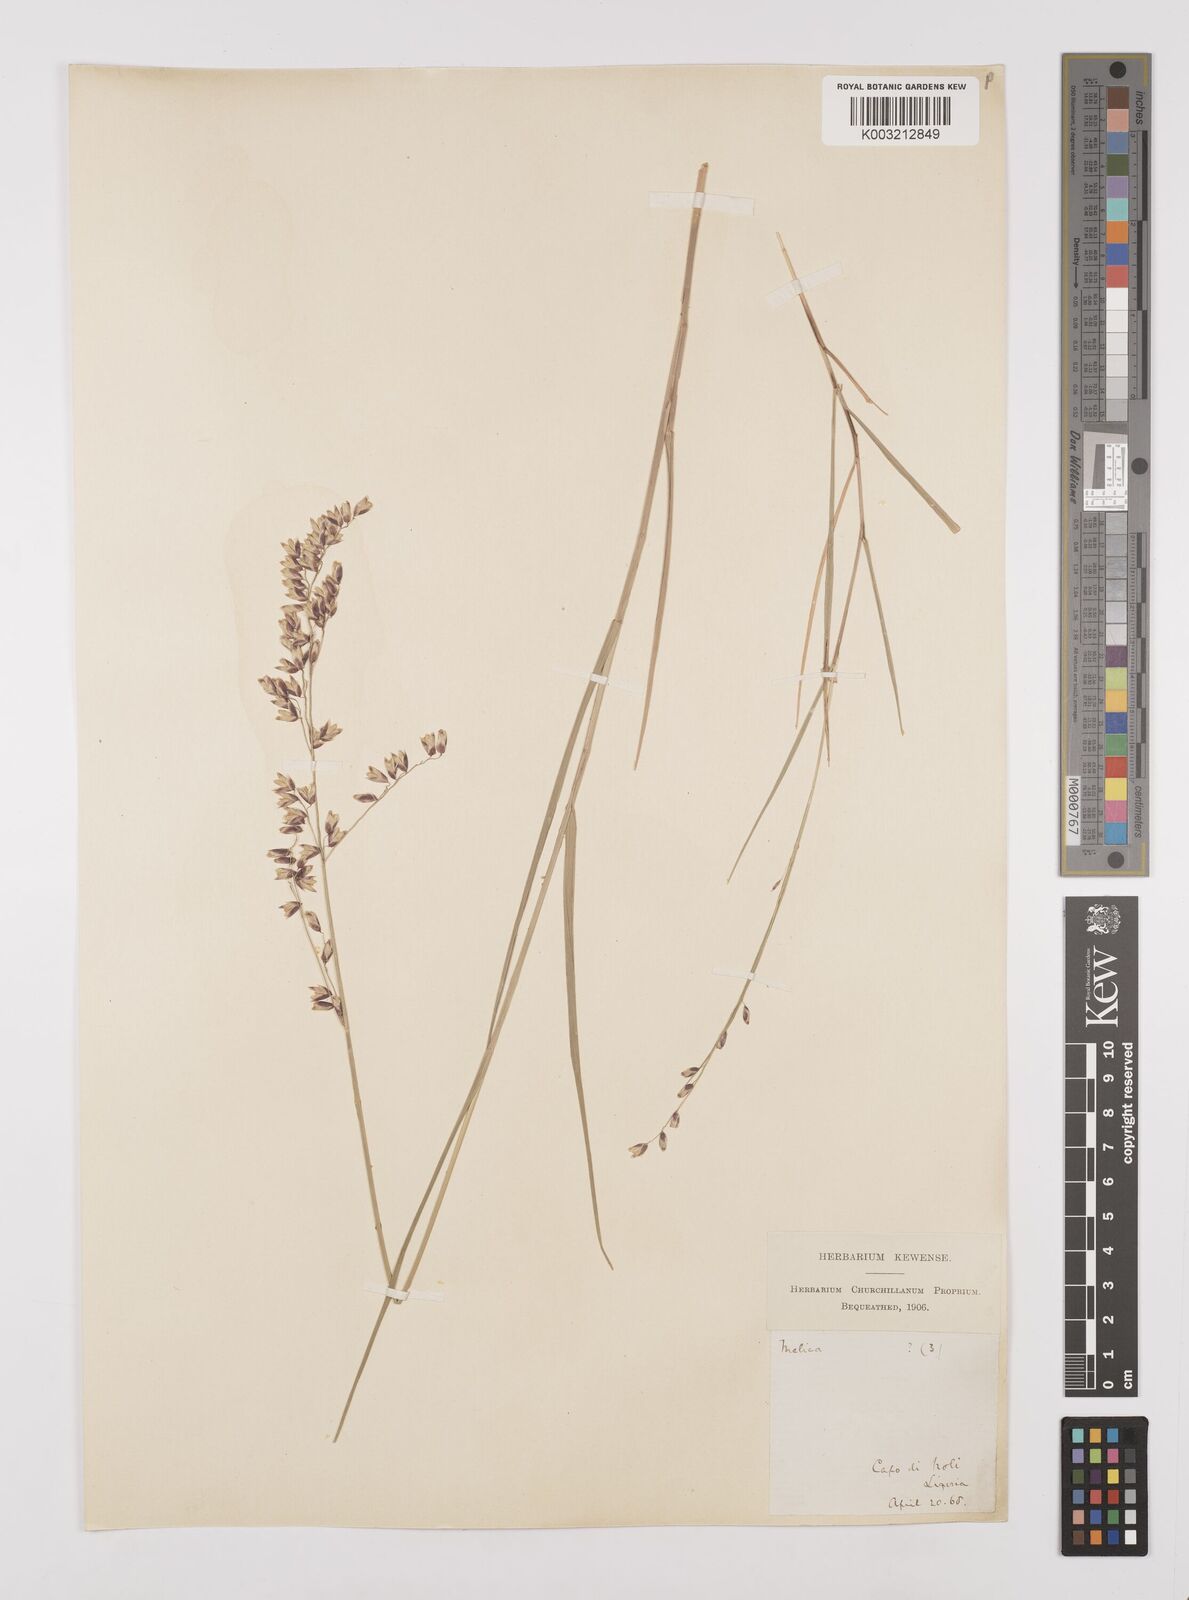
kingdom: Plantae
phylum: Tracheophyta
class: Liliopsida
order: Poales
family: Poaceae
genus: Melica
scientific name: Melica minuta
